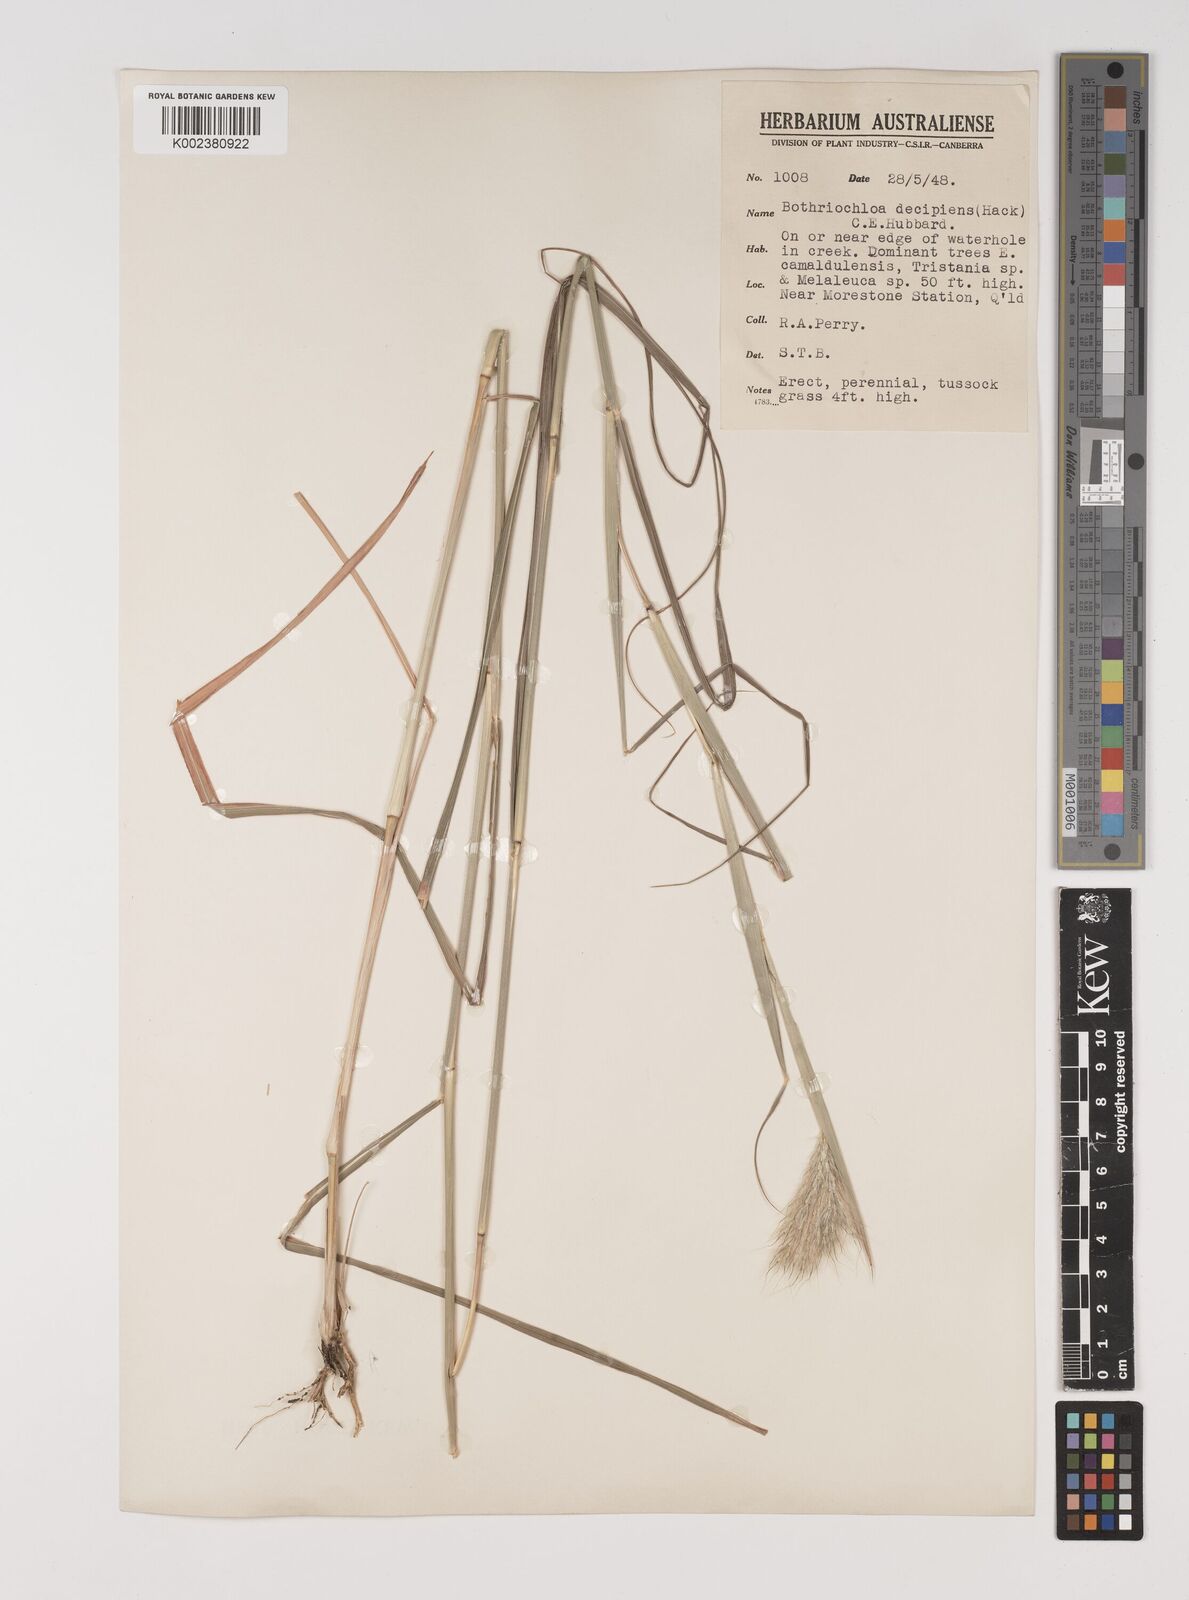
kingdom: Plantae
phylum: Tracheophyta
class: Liliopsida
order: Poales
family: Poaceae
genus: Bothriochloa
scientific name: Bothriochloa decipiens
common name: Pitted-bluegrass
